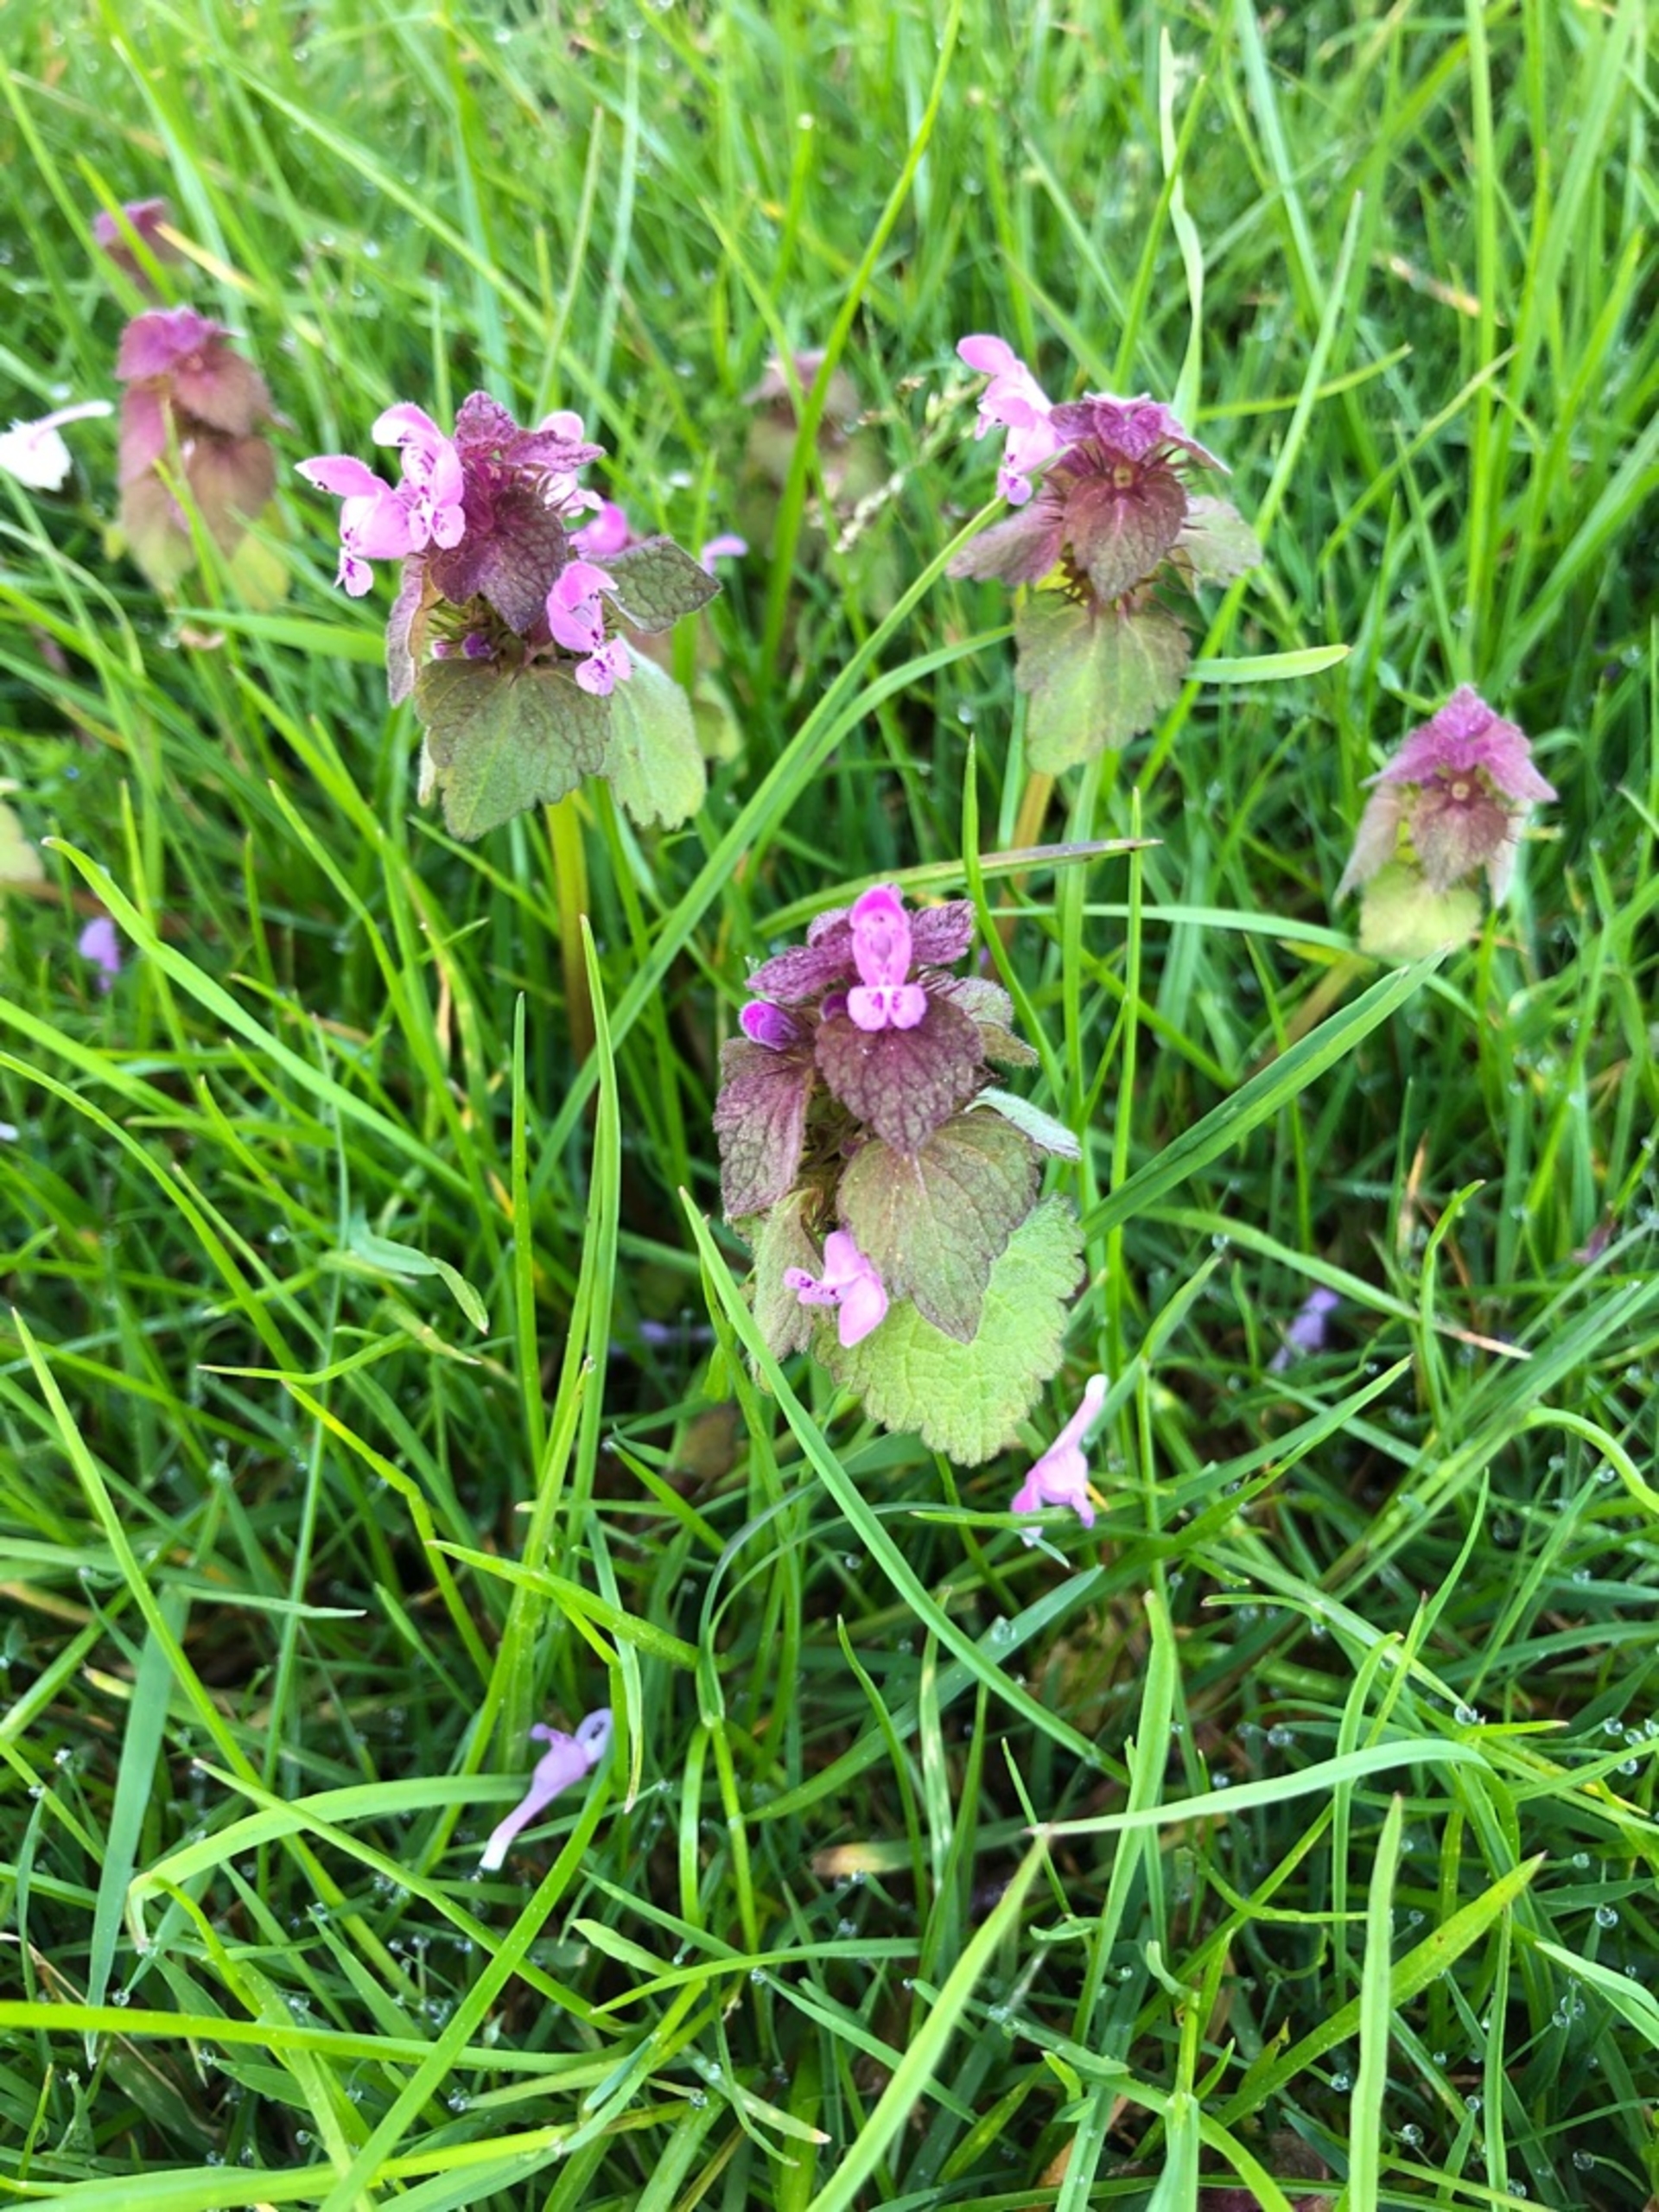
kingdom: Plantae
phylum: Tracheophyta
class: Magnoliopsida
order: Lamiales
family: Lamiaceae
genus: Lamium
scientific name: Lamium purpureum
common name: Rød tvetand
